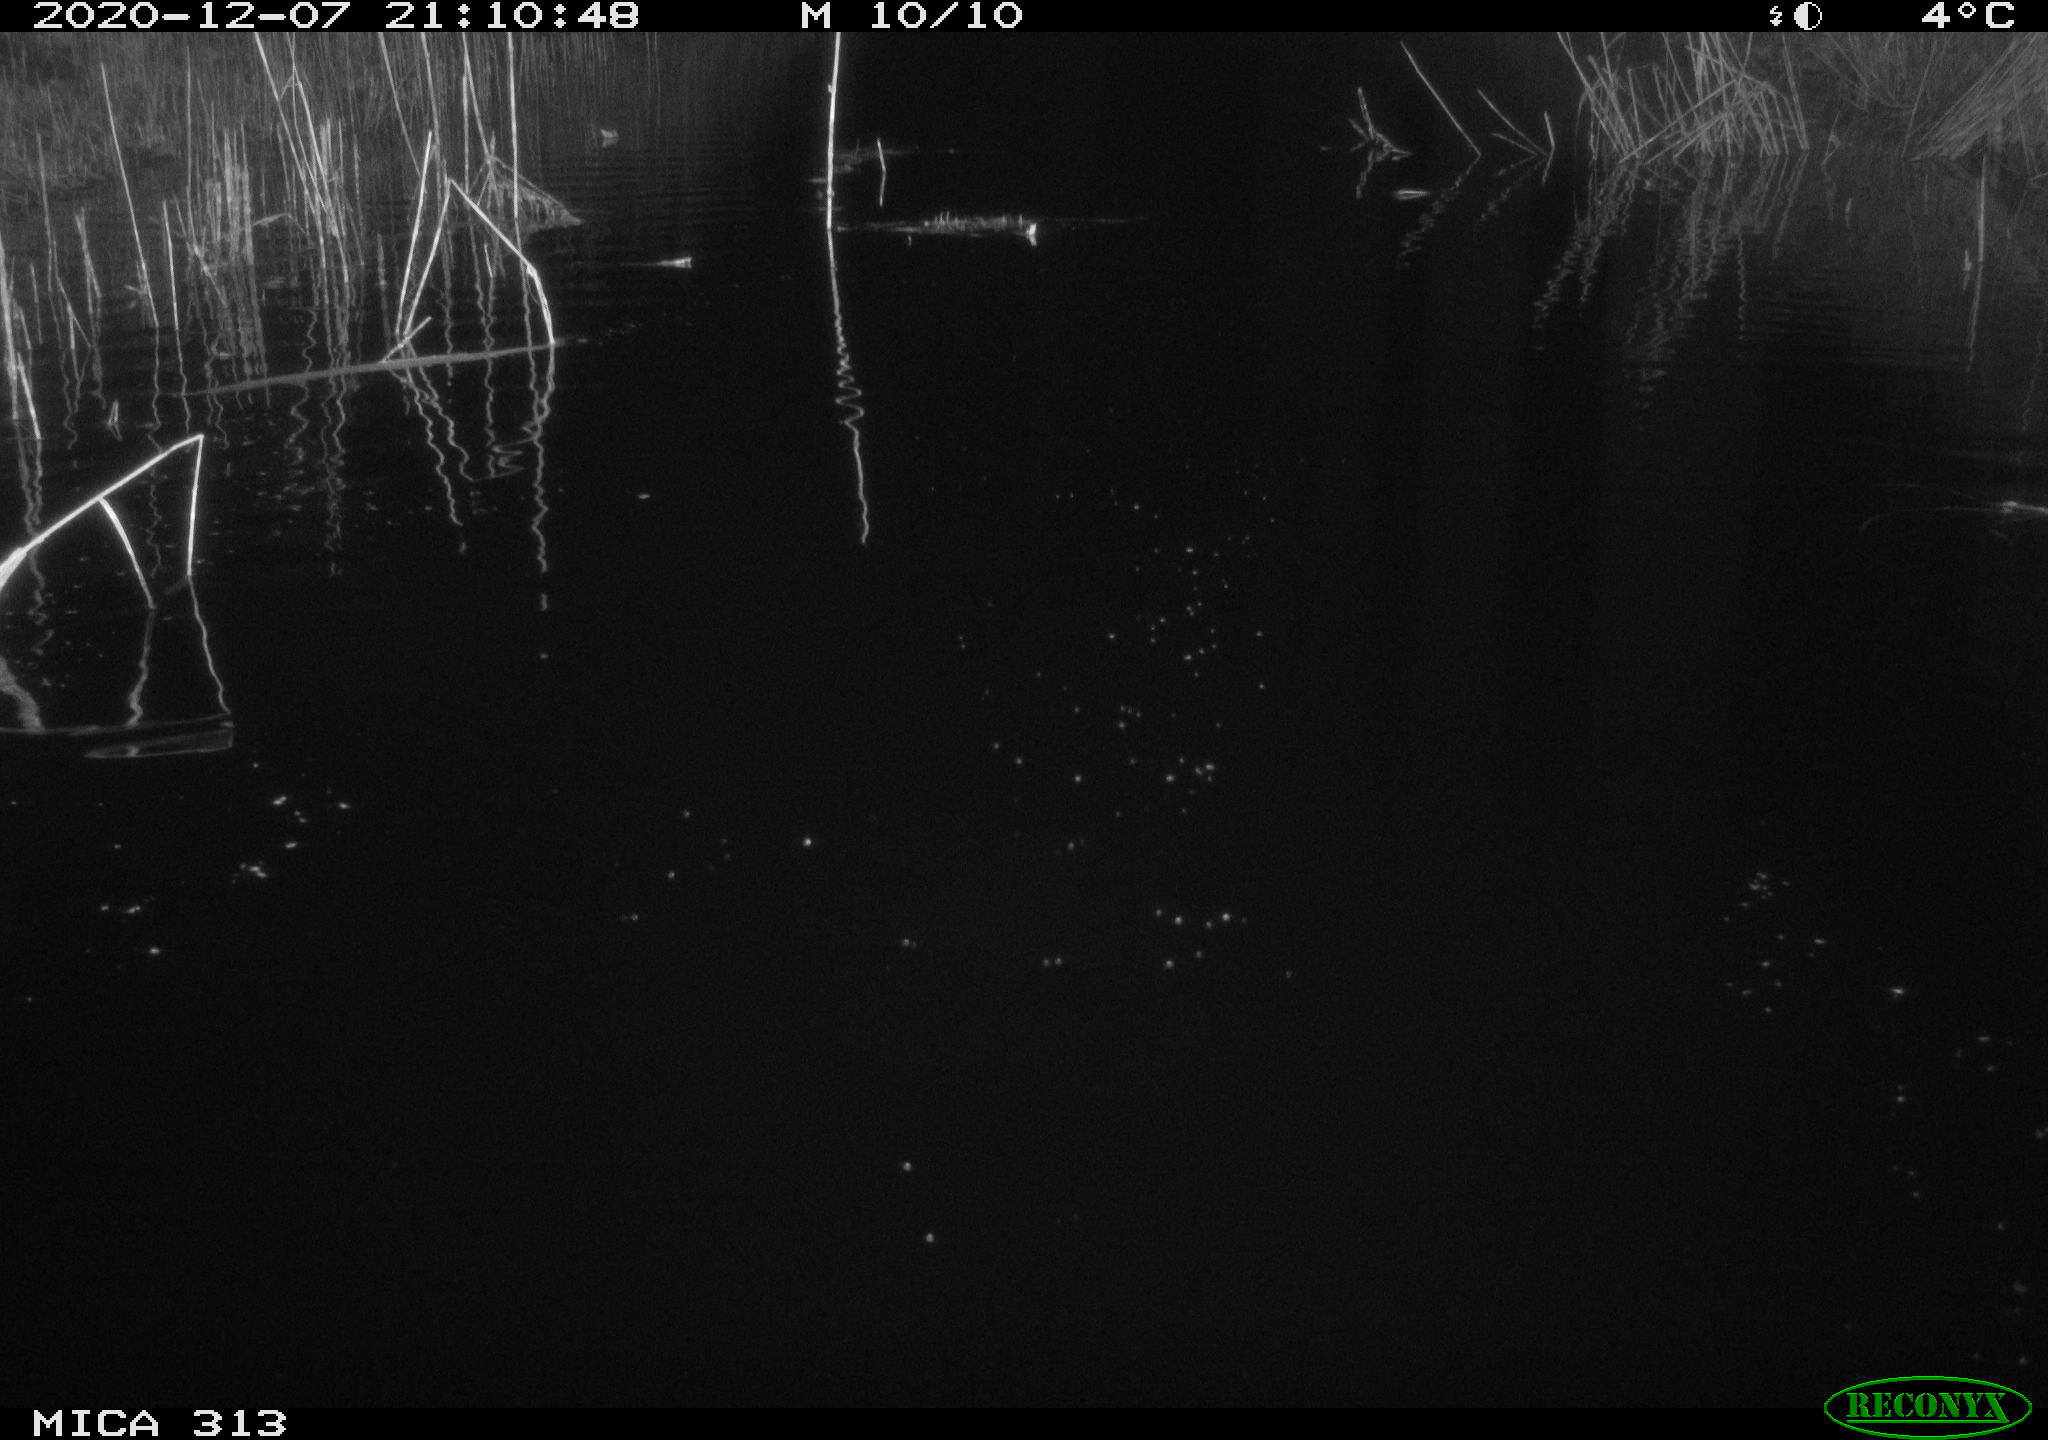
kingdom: Animalia
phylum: Chordata
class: Mammalia
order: Rodentia
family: Muridae
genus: Rattus
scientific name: Rattus norvegicus
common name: Brown rat
